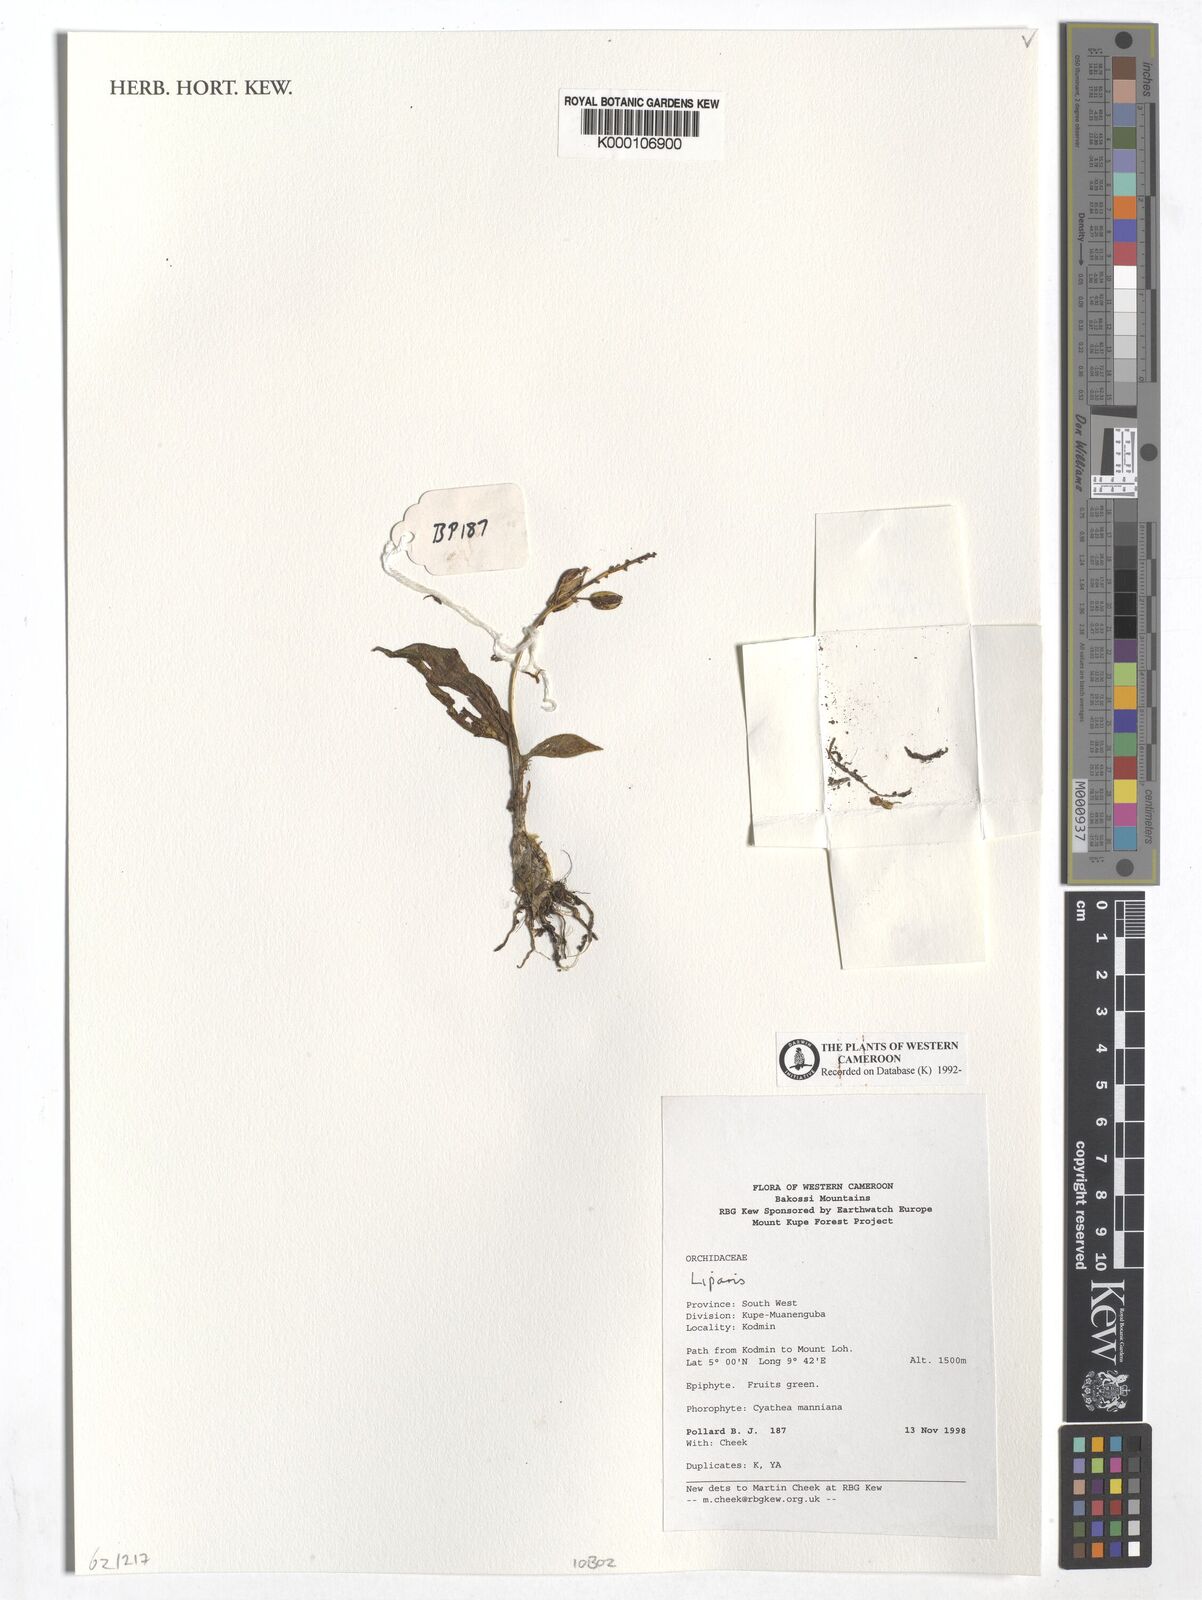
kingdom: Plantae
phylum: Tracheophyta
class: Liliopsida
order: Asparagales
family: Orchidaceae
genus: Liparis
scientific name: Liparis
